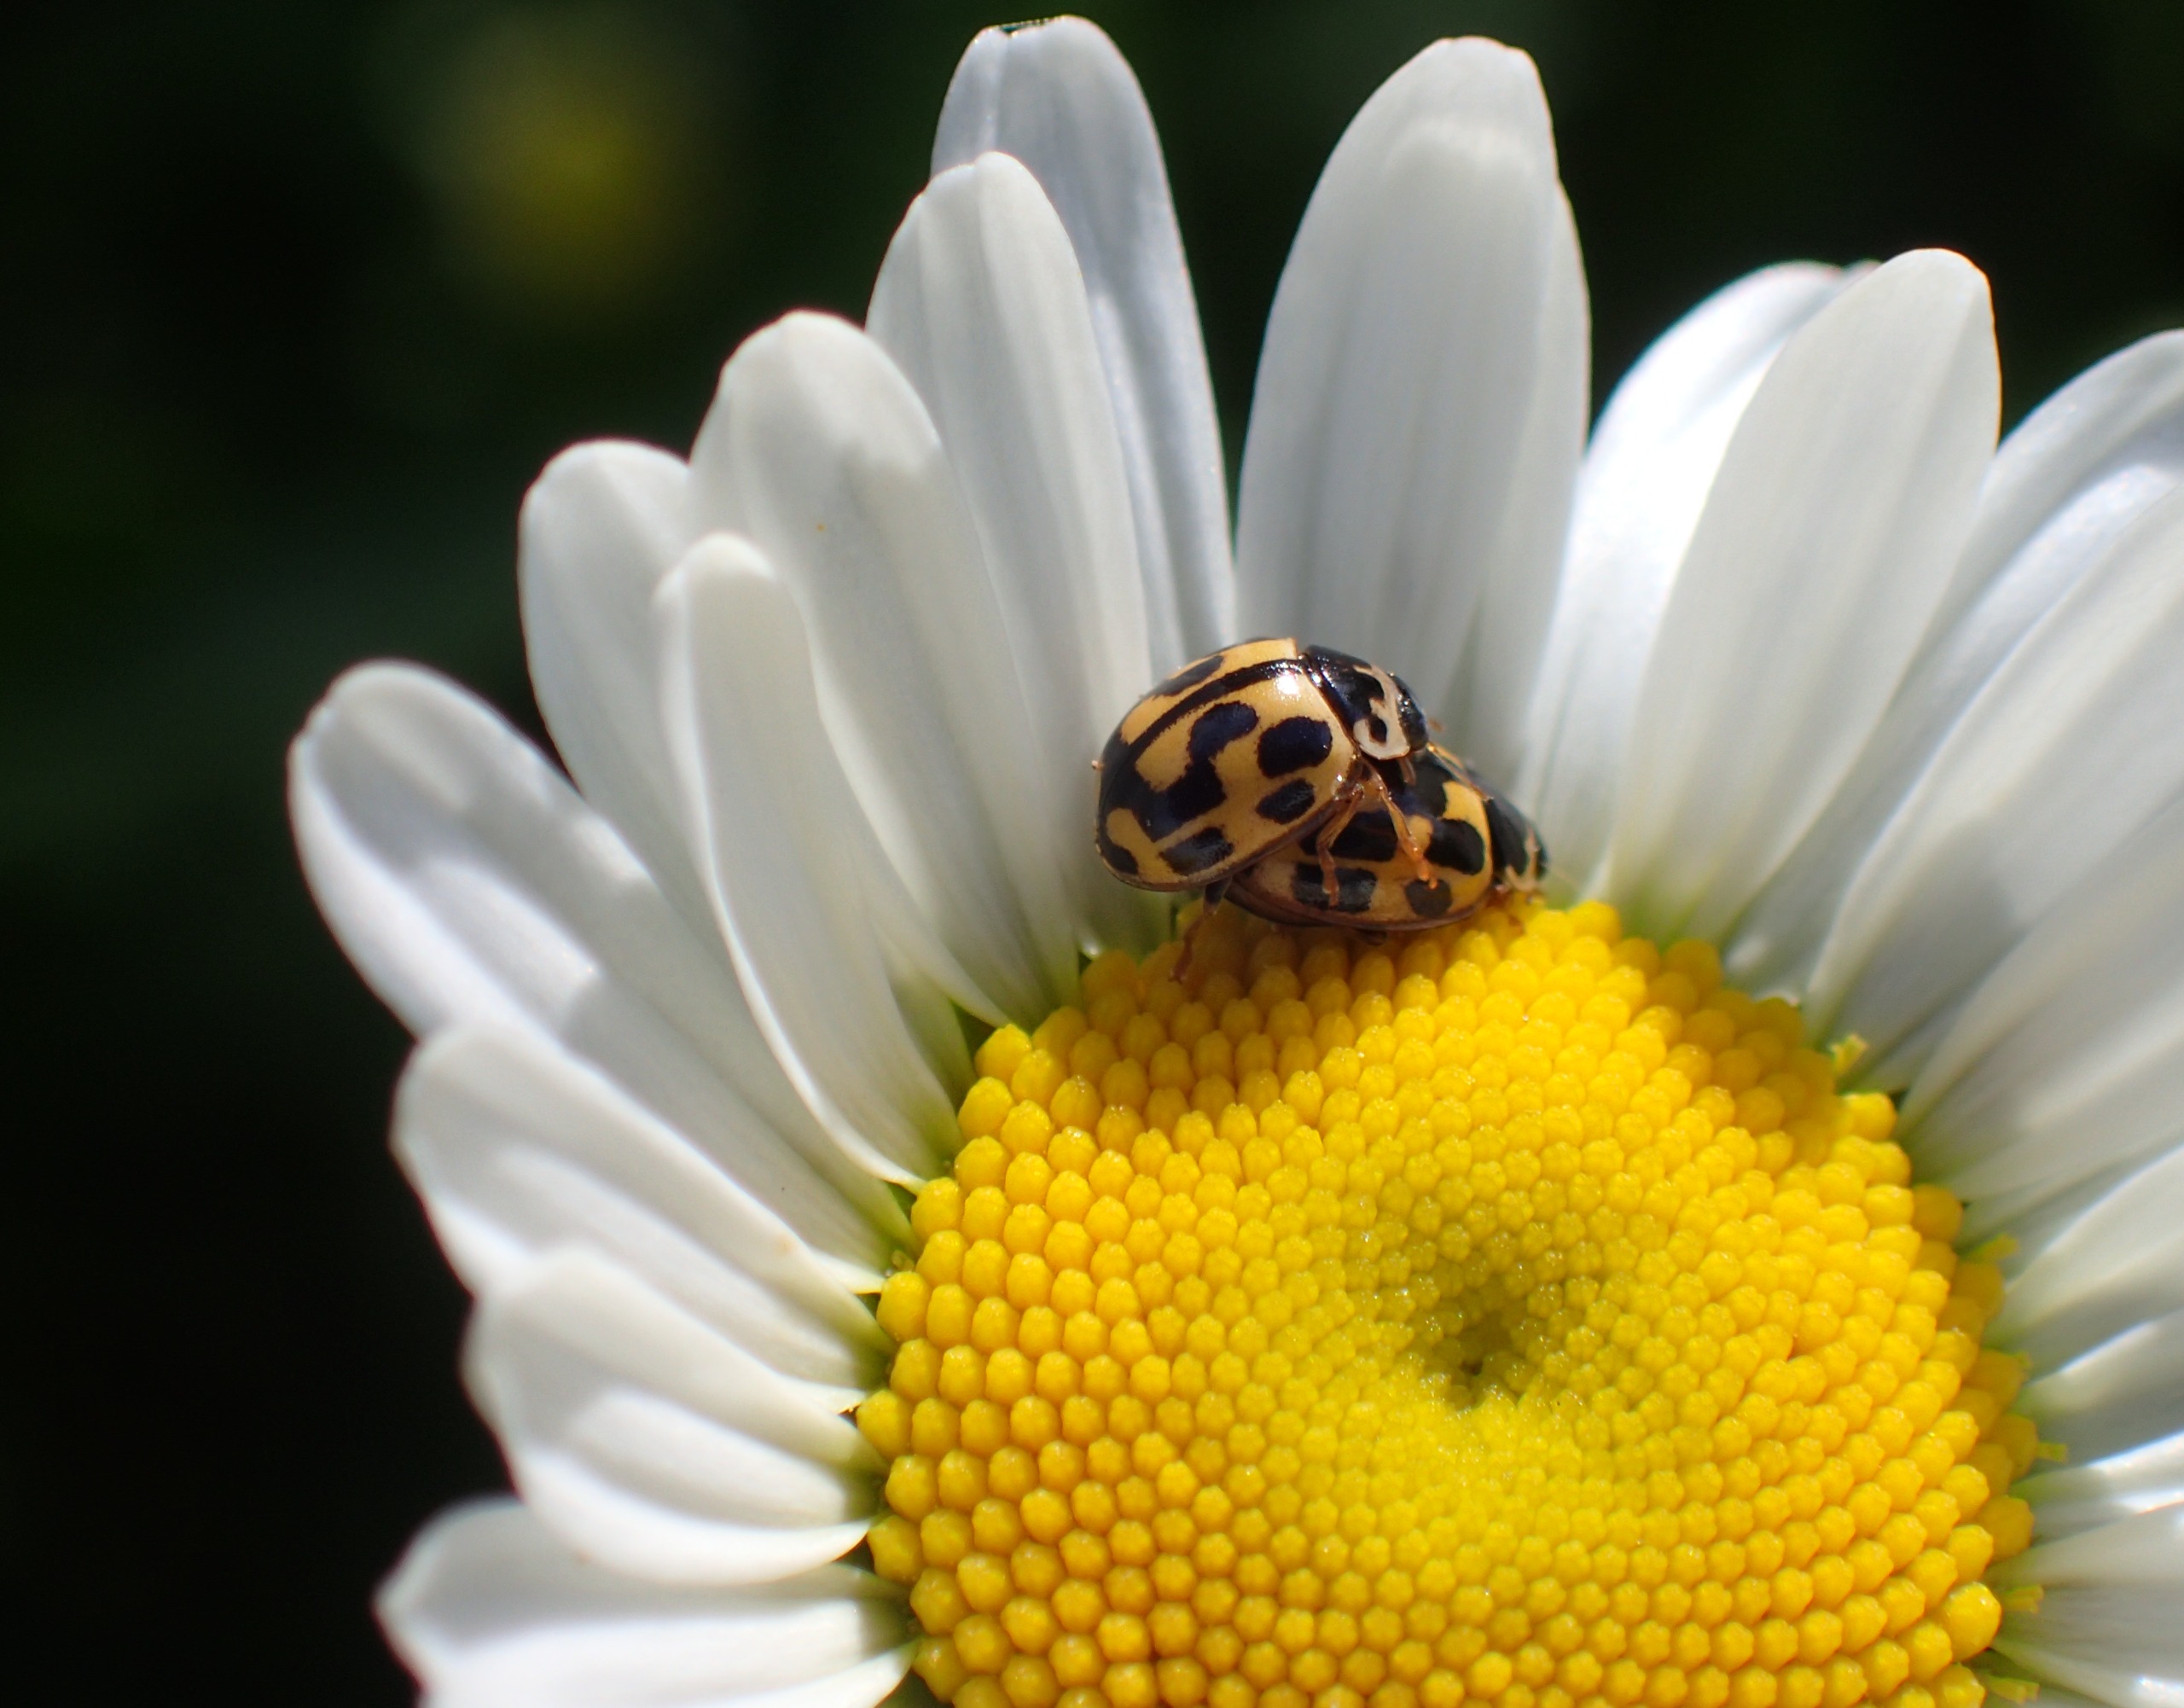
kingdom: Animalia
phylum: Arthropoda
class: Insecta
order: Coleoptera
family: Coccinellidae
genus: Propylaea
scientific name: Propylaea quatuordecimpunctata
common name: Skakbræt
